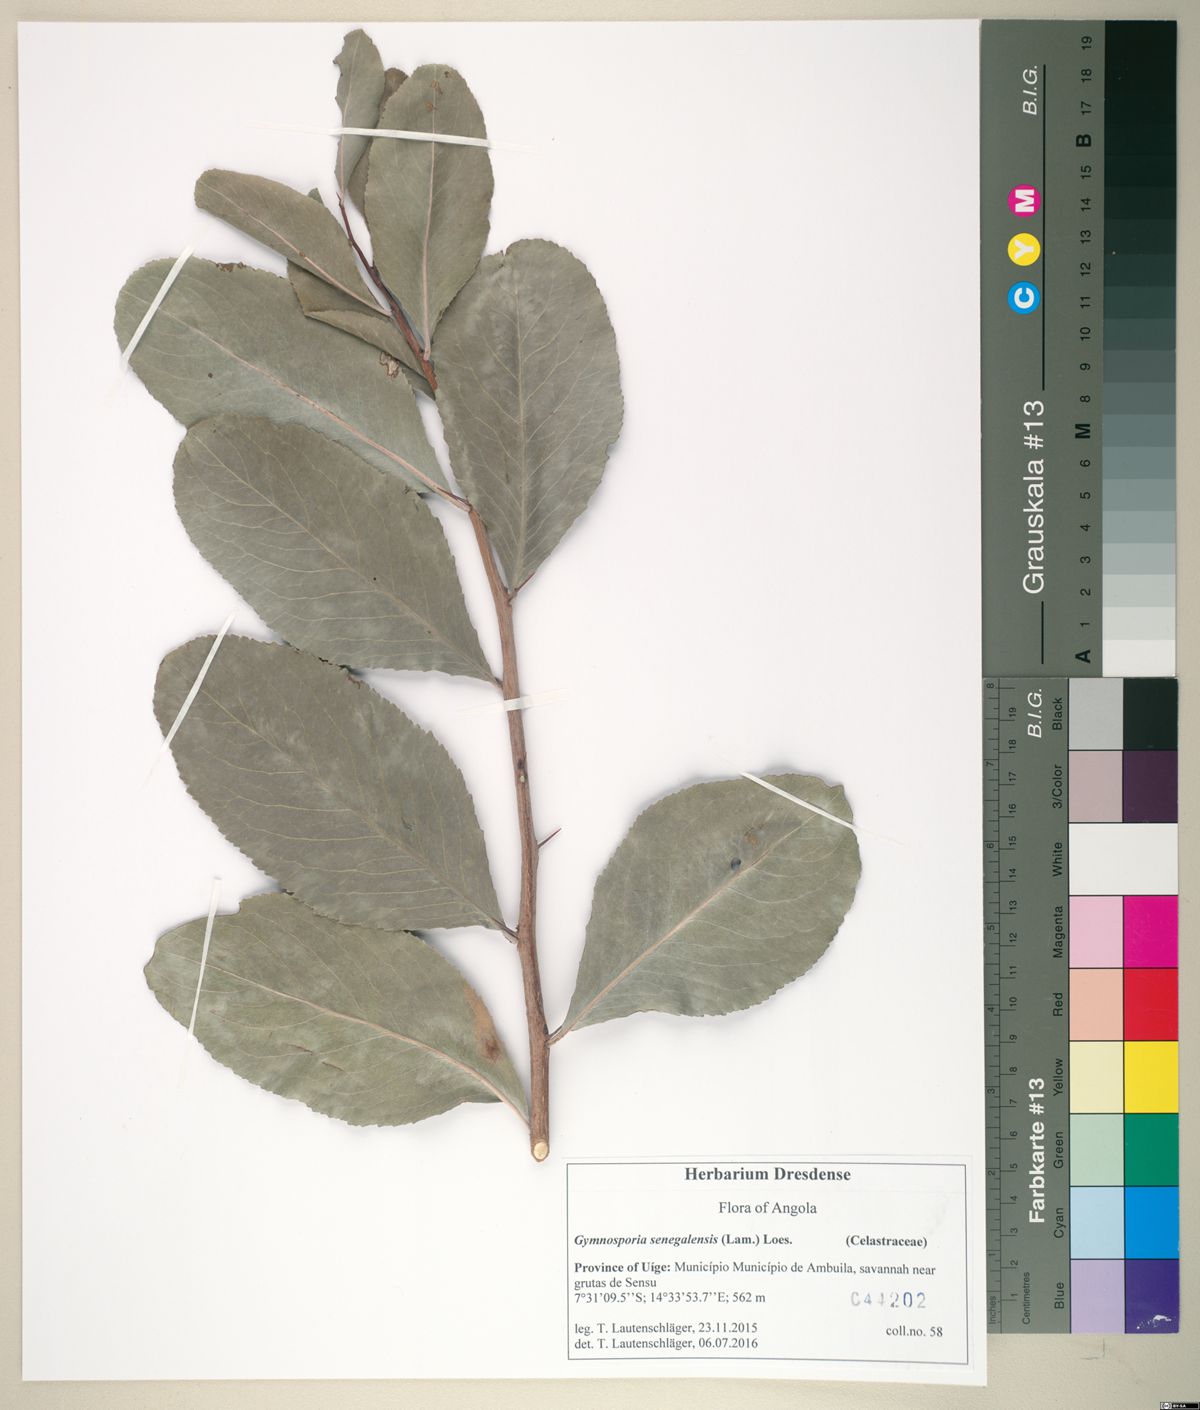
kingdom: Plantae
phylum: Tracheophyta
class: Magnoliopsida
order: Celastrales
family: Celastraceae
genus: Gymnosporia
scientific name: Gymnosporia senegalensis
